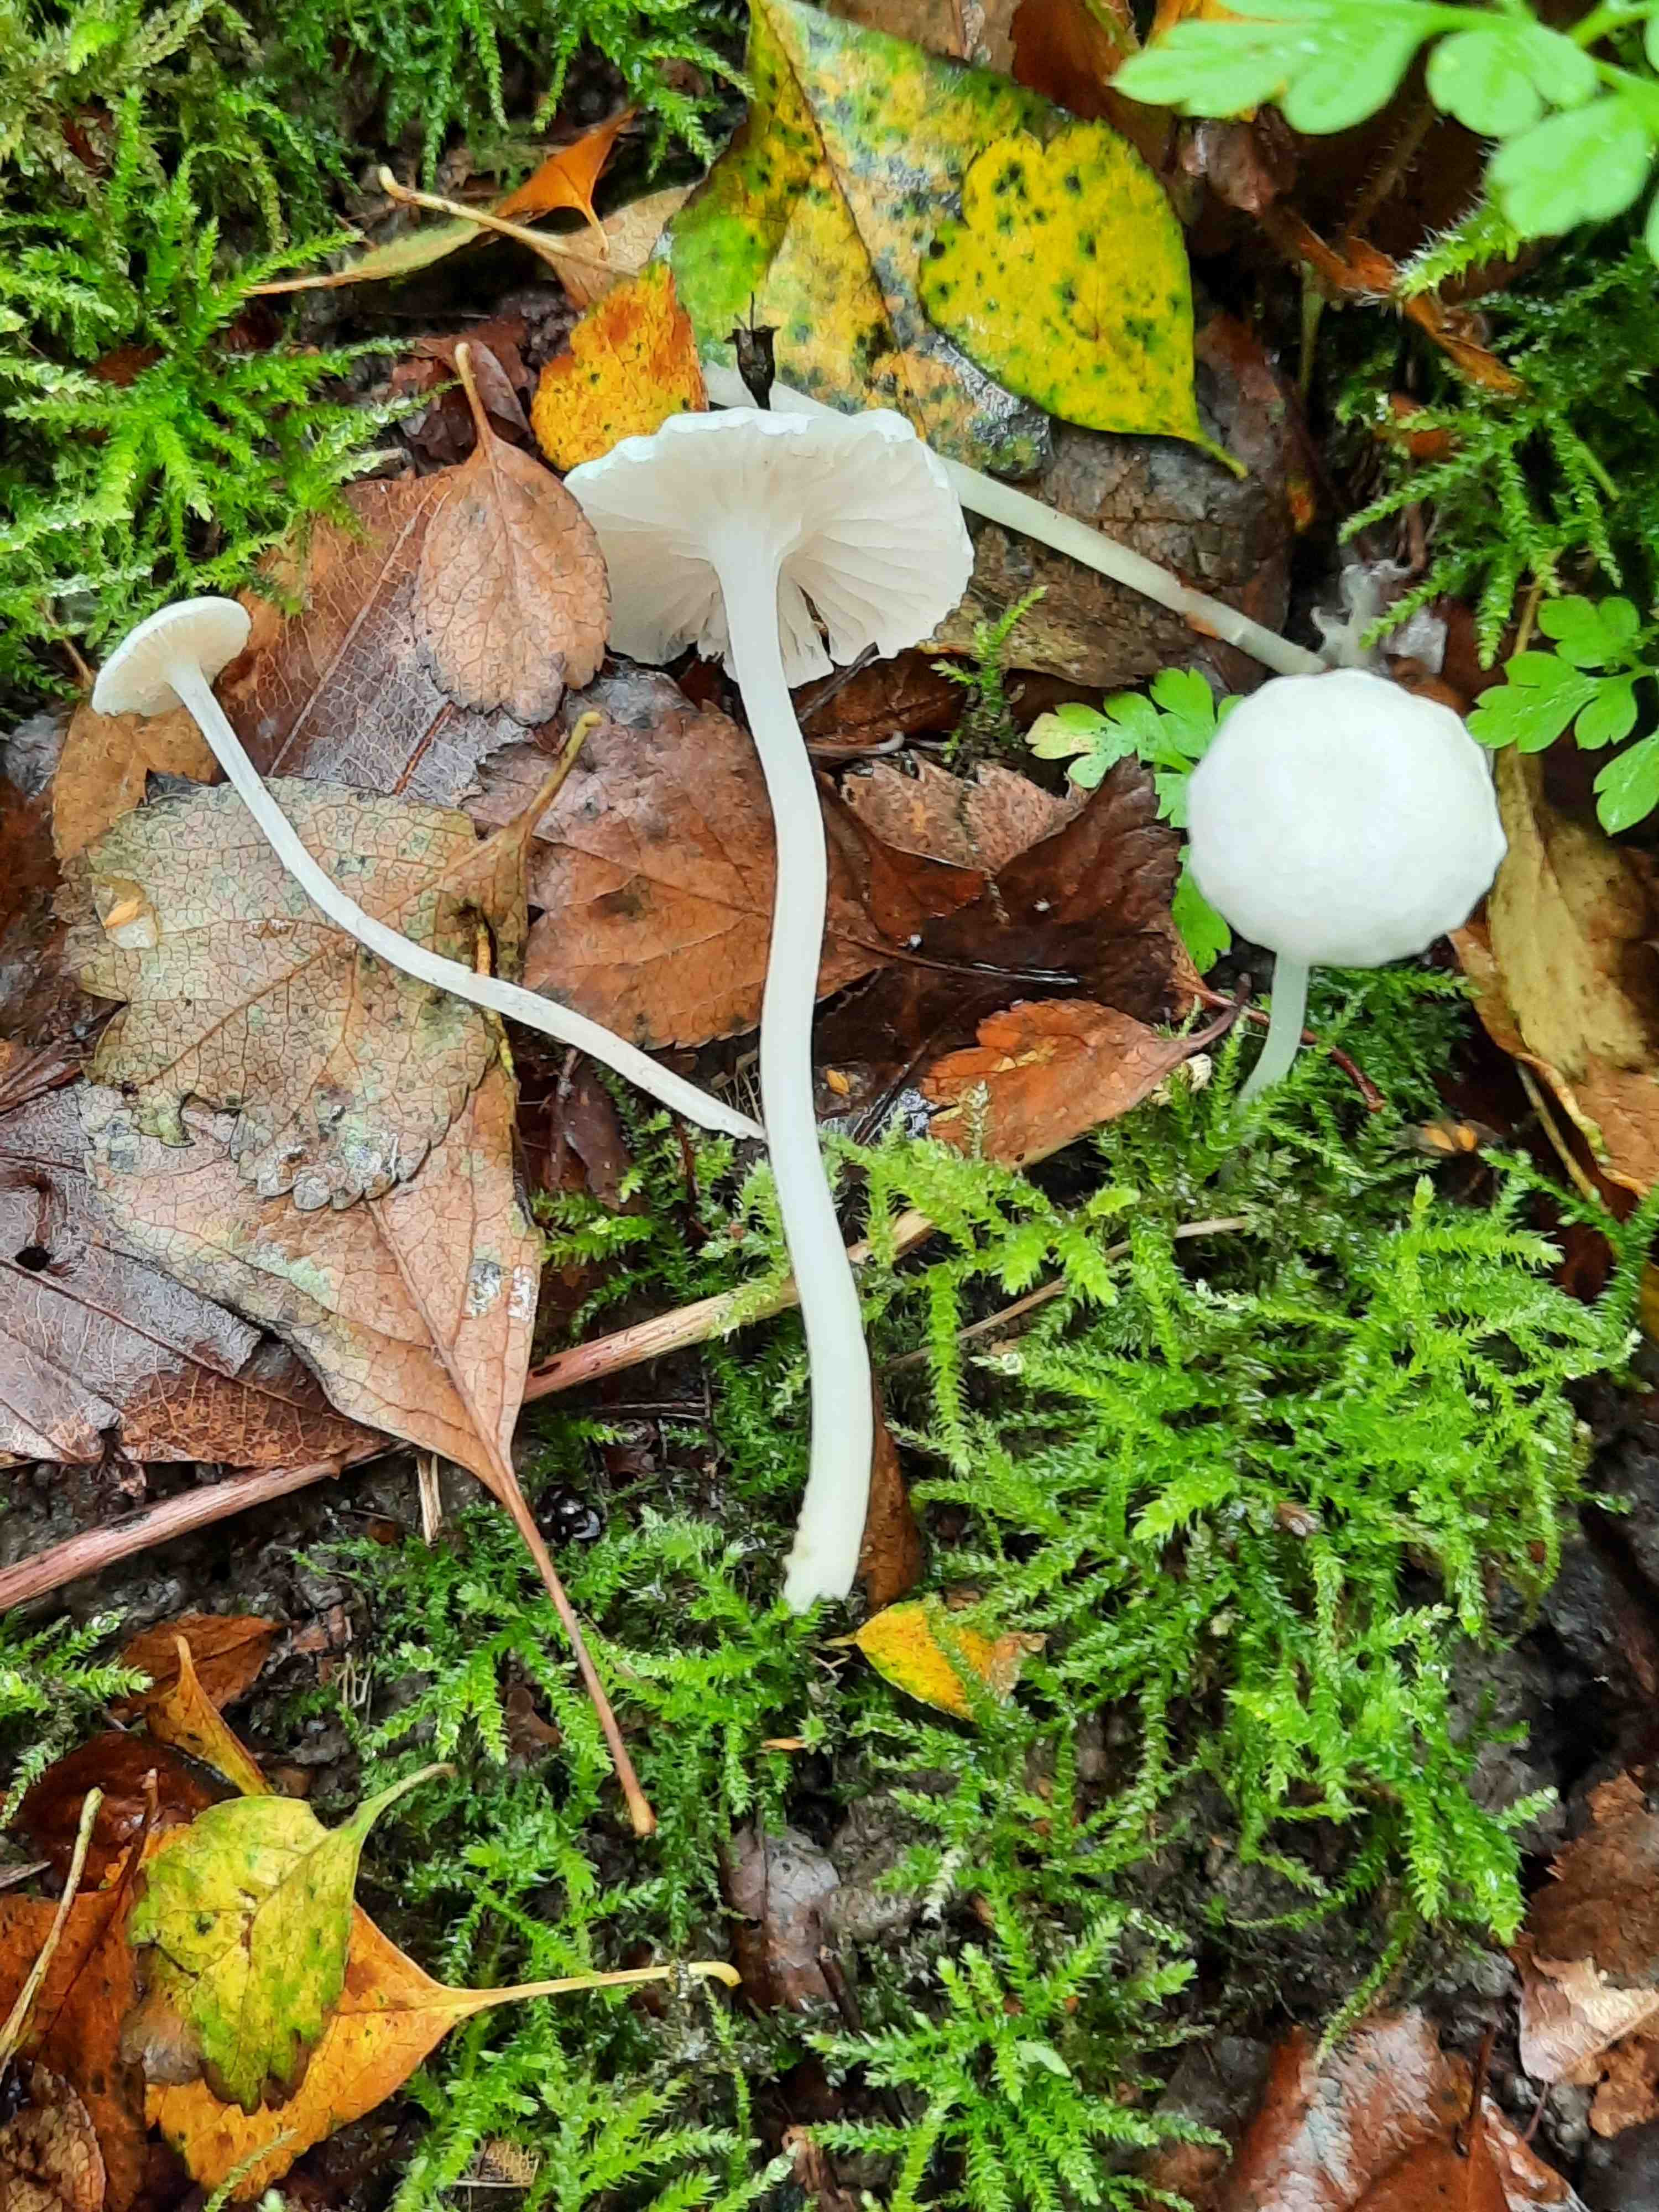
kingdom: Fungi
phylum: Basidiomycota
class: Agaricomycetes
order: Agaricales
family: Entolomataceae
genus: Entoloma
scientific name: Entoloma sericellum
